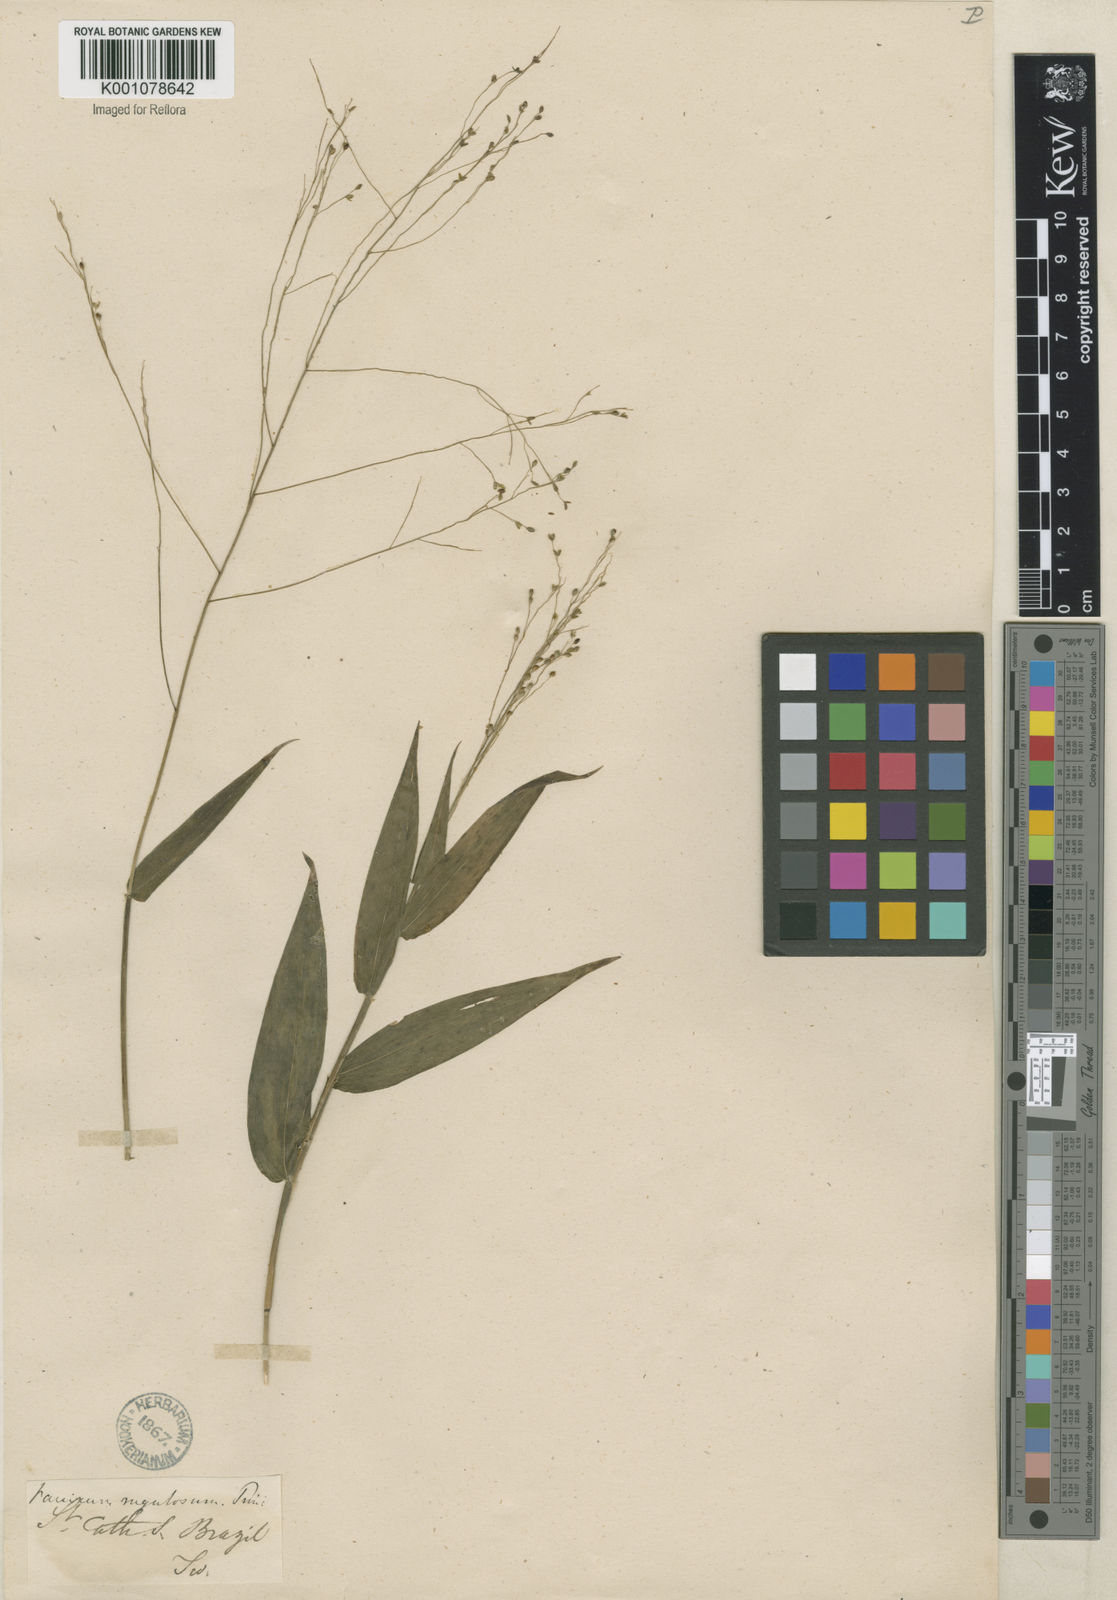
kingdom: Plantae
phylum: Tracheophyta
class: Liliopsida
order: Poales
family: Poaceae
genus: Panicum
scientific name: Panicum millegrana
